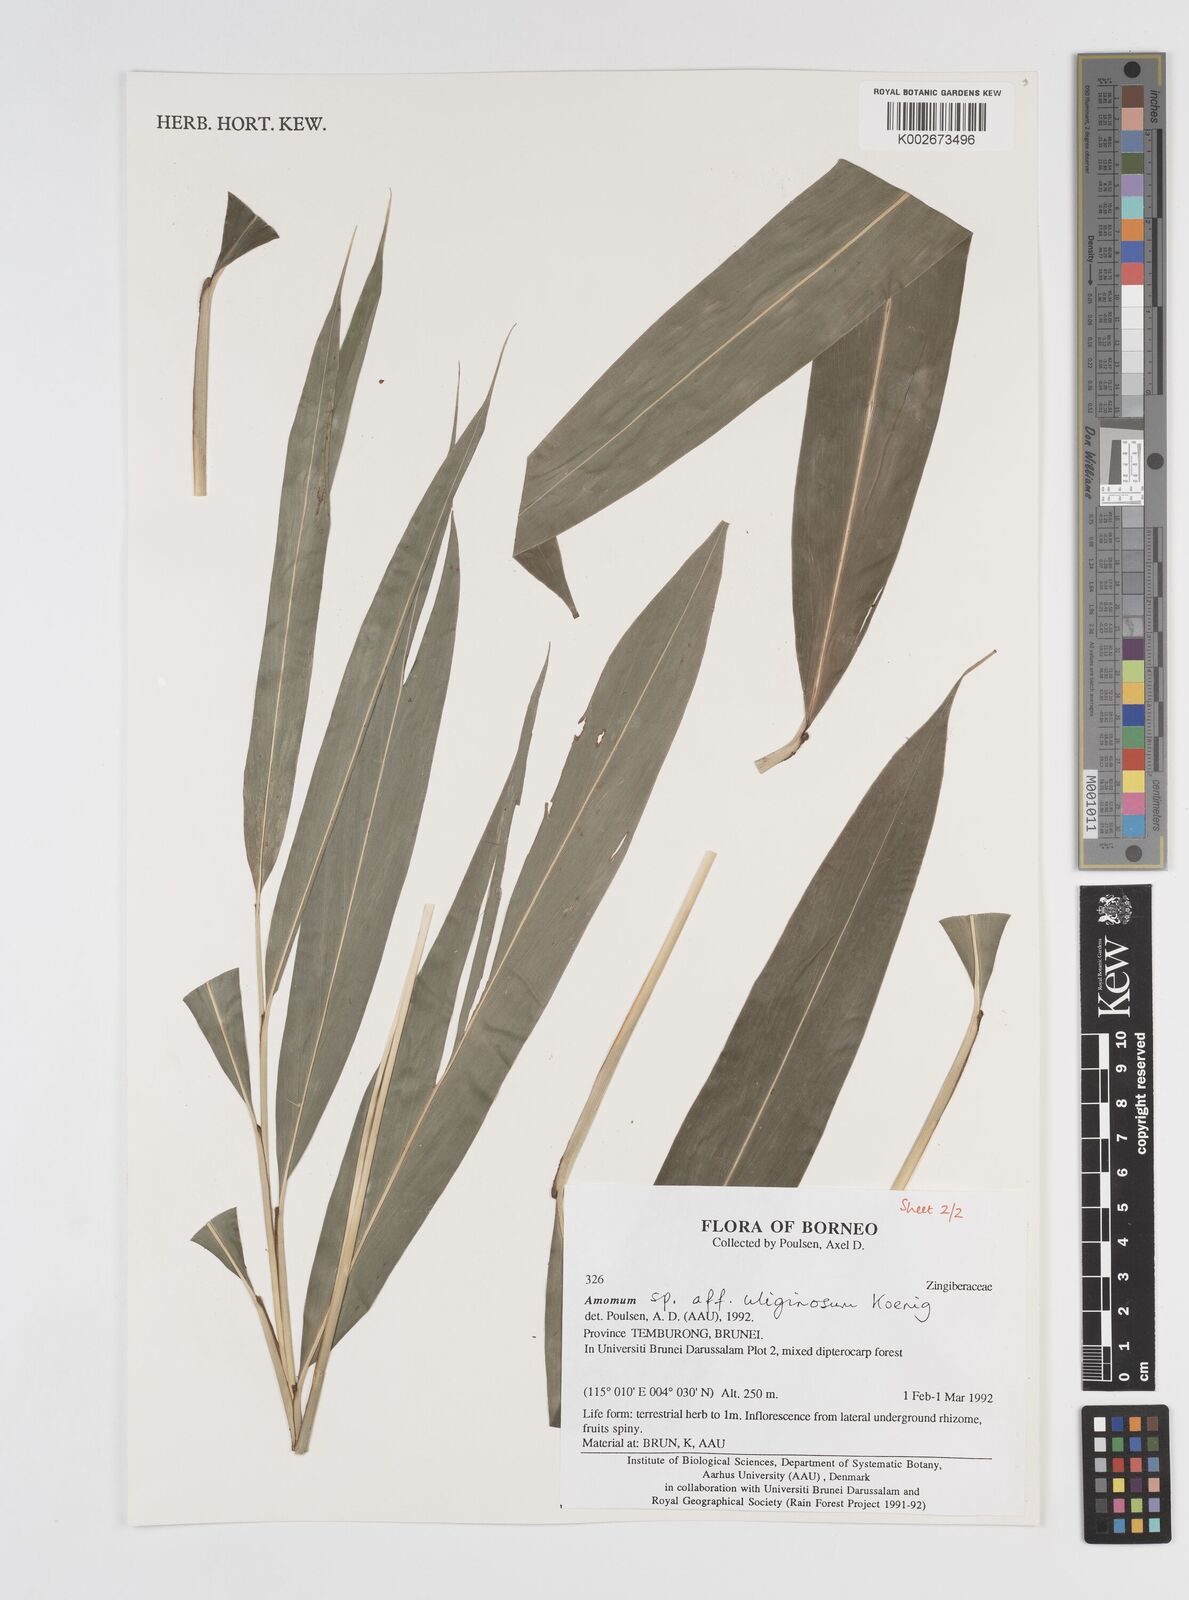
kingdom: Plantae
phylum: Tracheophyta
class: Liliopsida
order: Zingiberales
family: Zingiberaceae
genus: Wurfbainia
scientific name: Wurfbainia uliginosa
